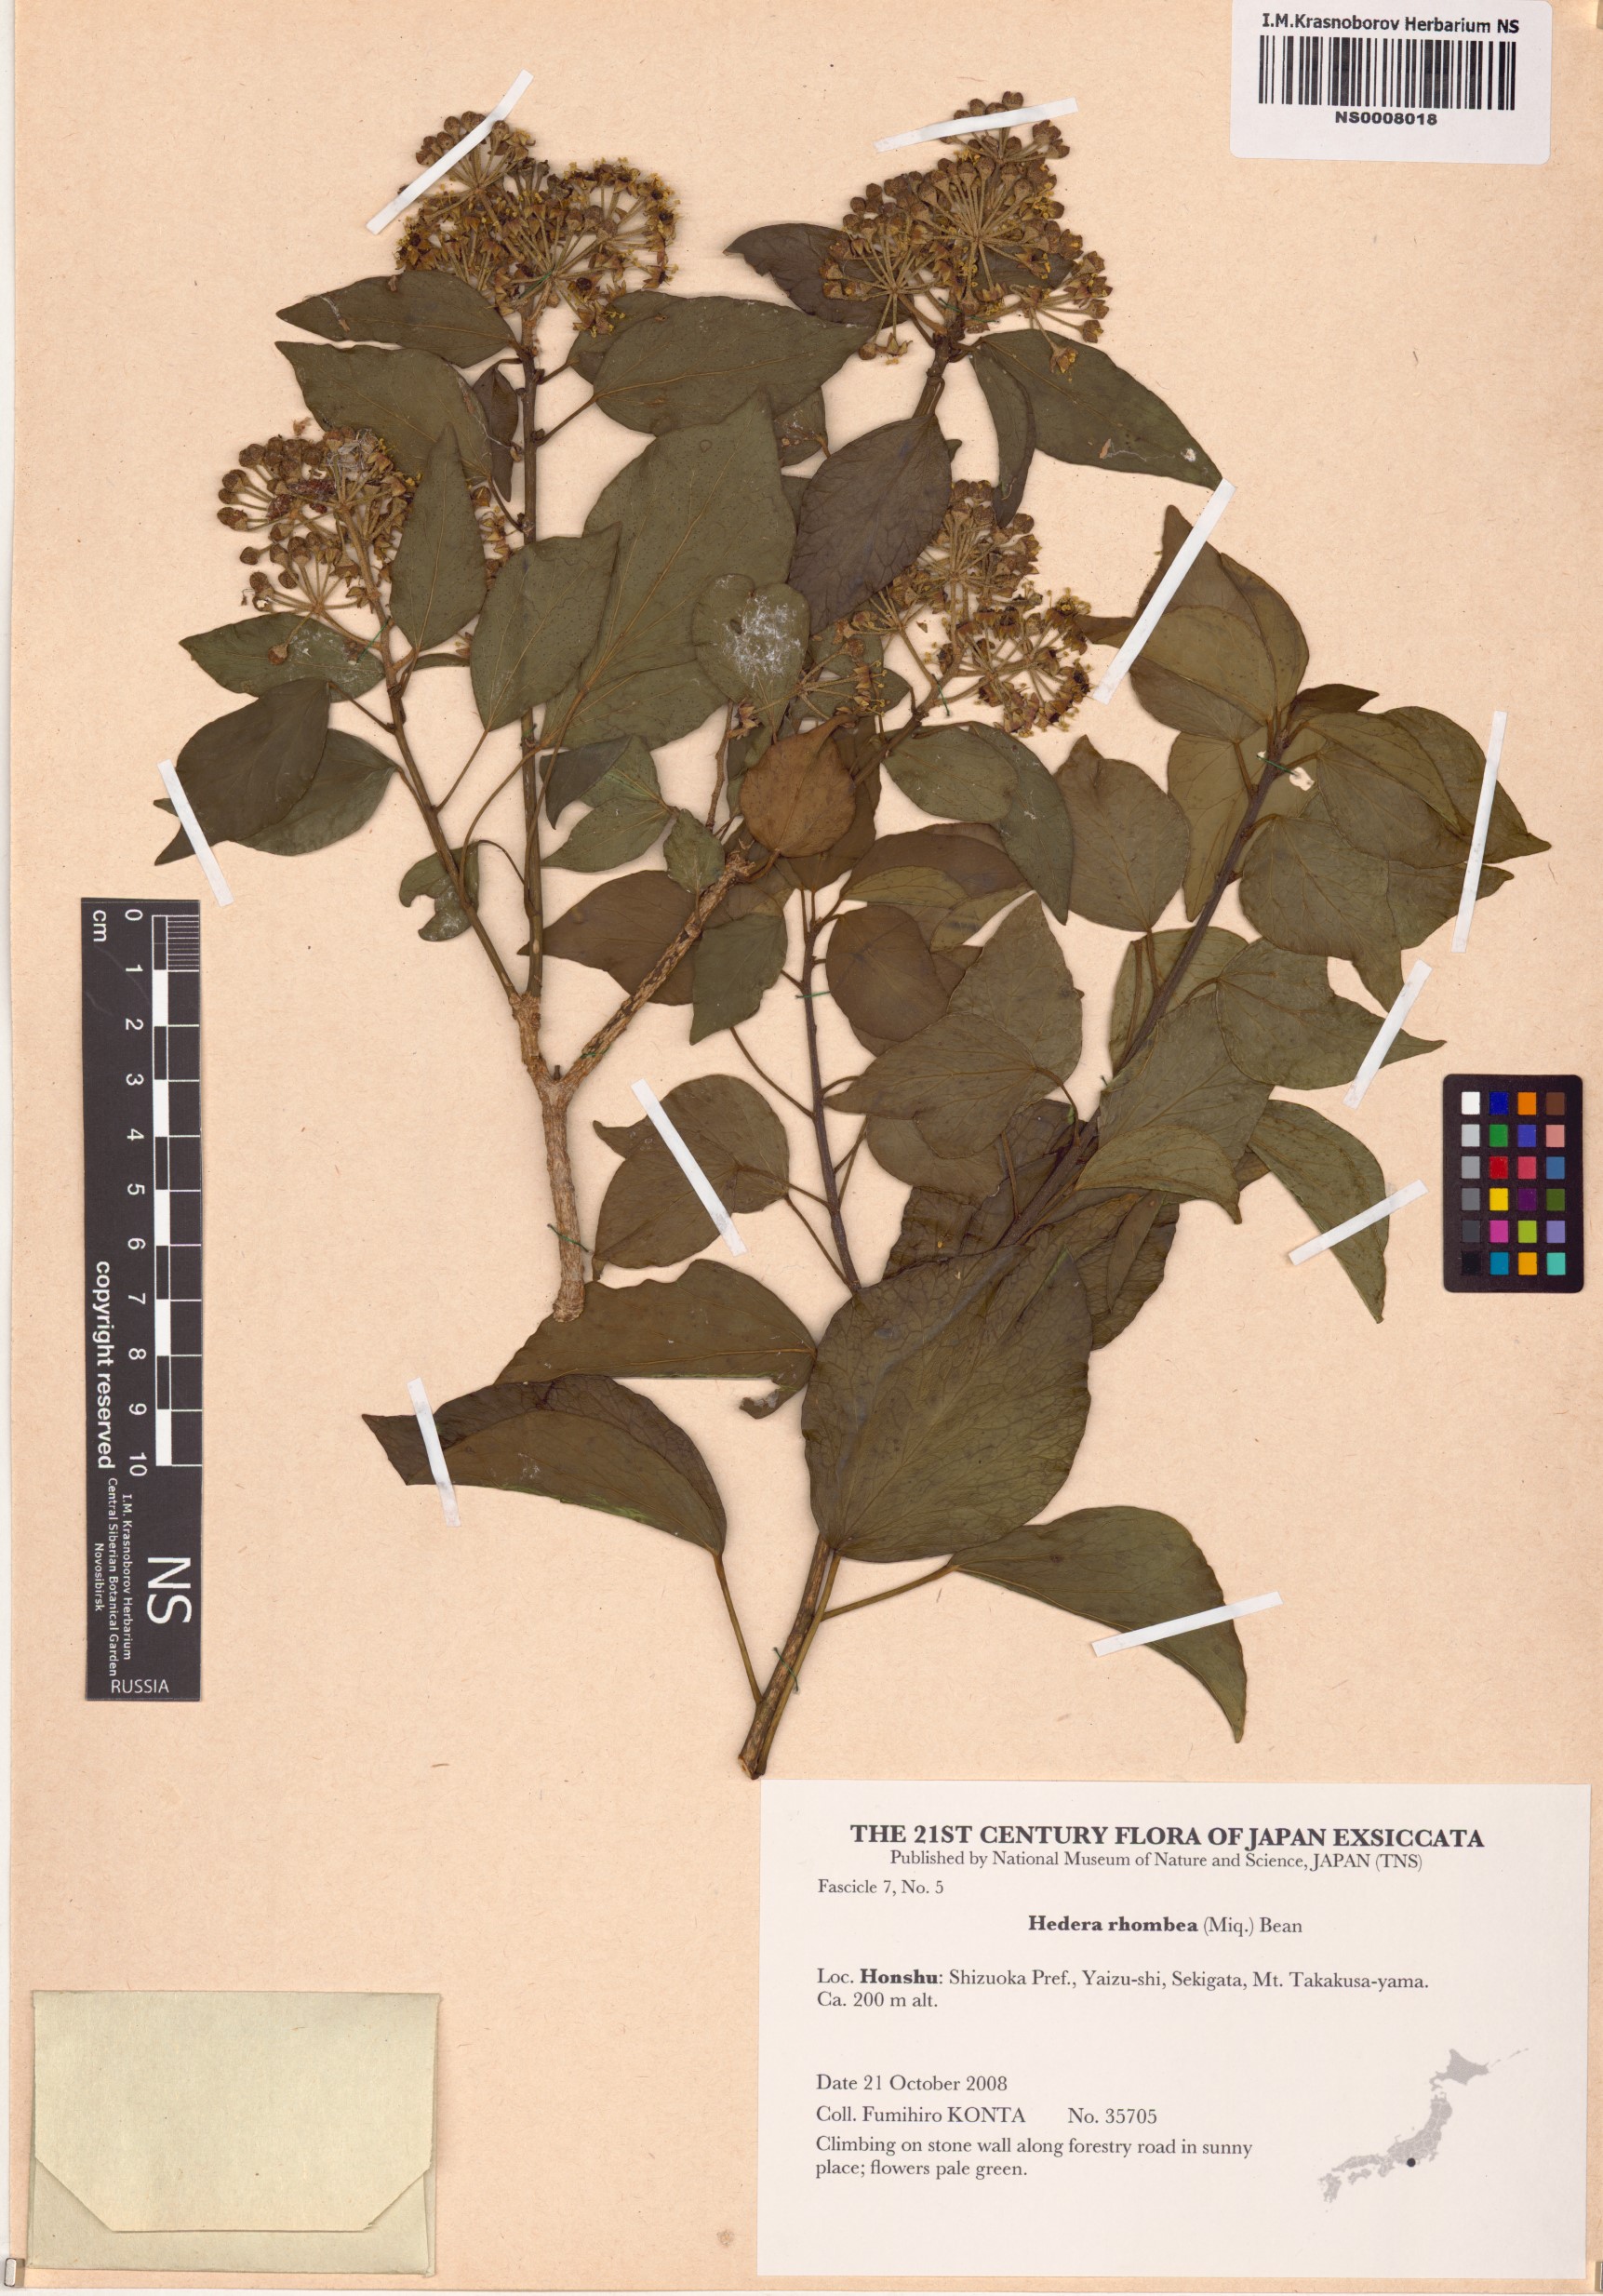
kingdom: Plantae
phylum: Tracheophyta
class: Magnoliopsida
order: Apiales
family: Araliaceae
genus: Hedera
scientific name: Hedera rhombea
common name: Japanese ivy
